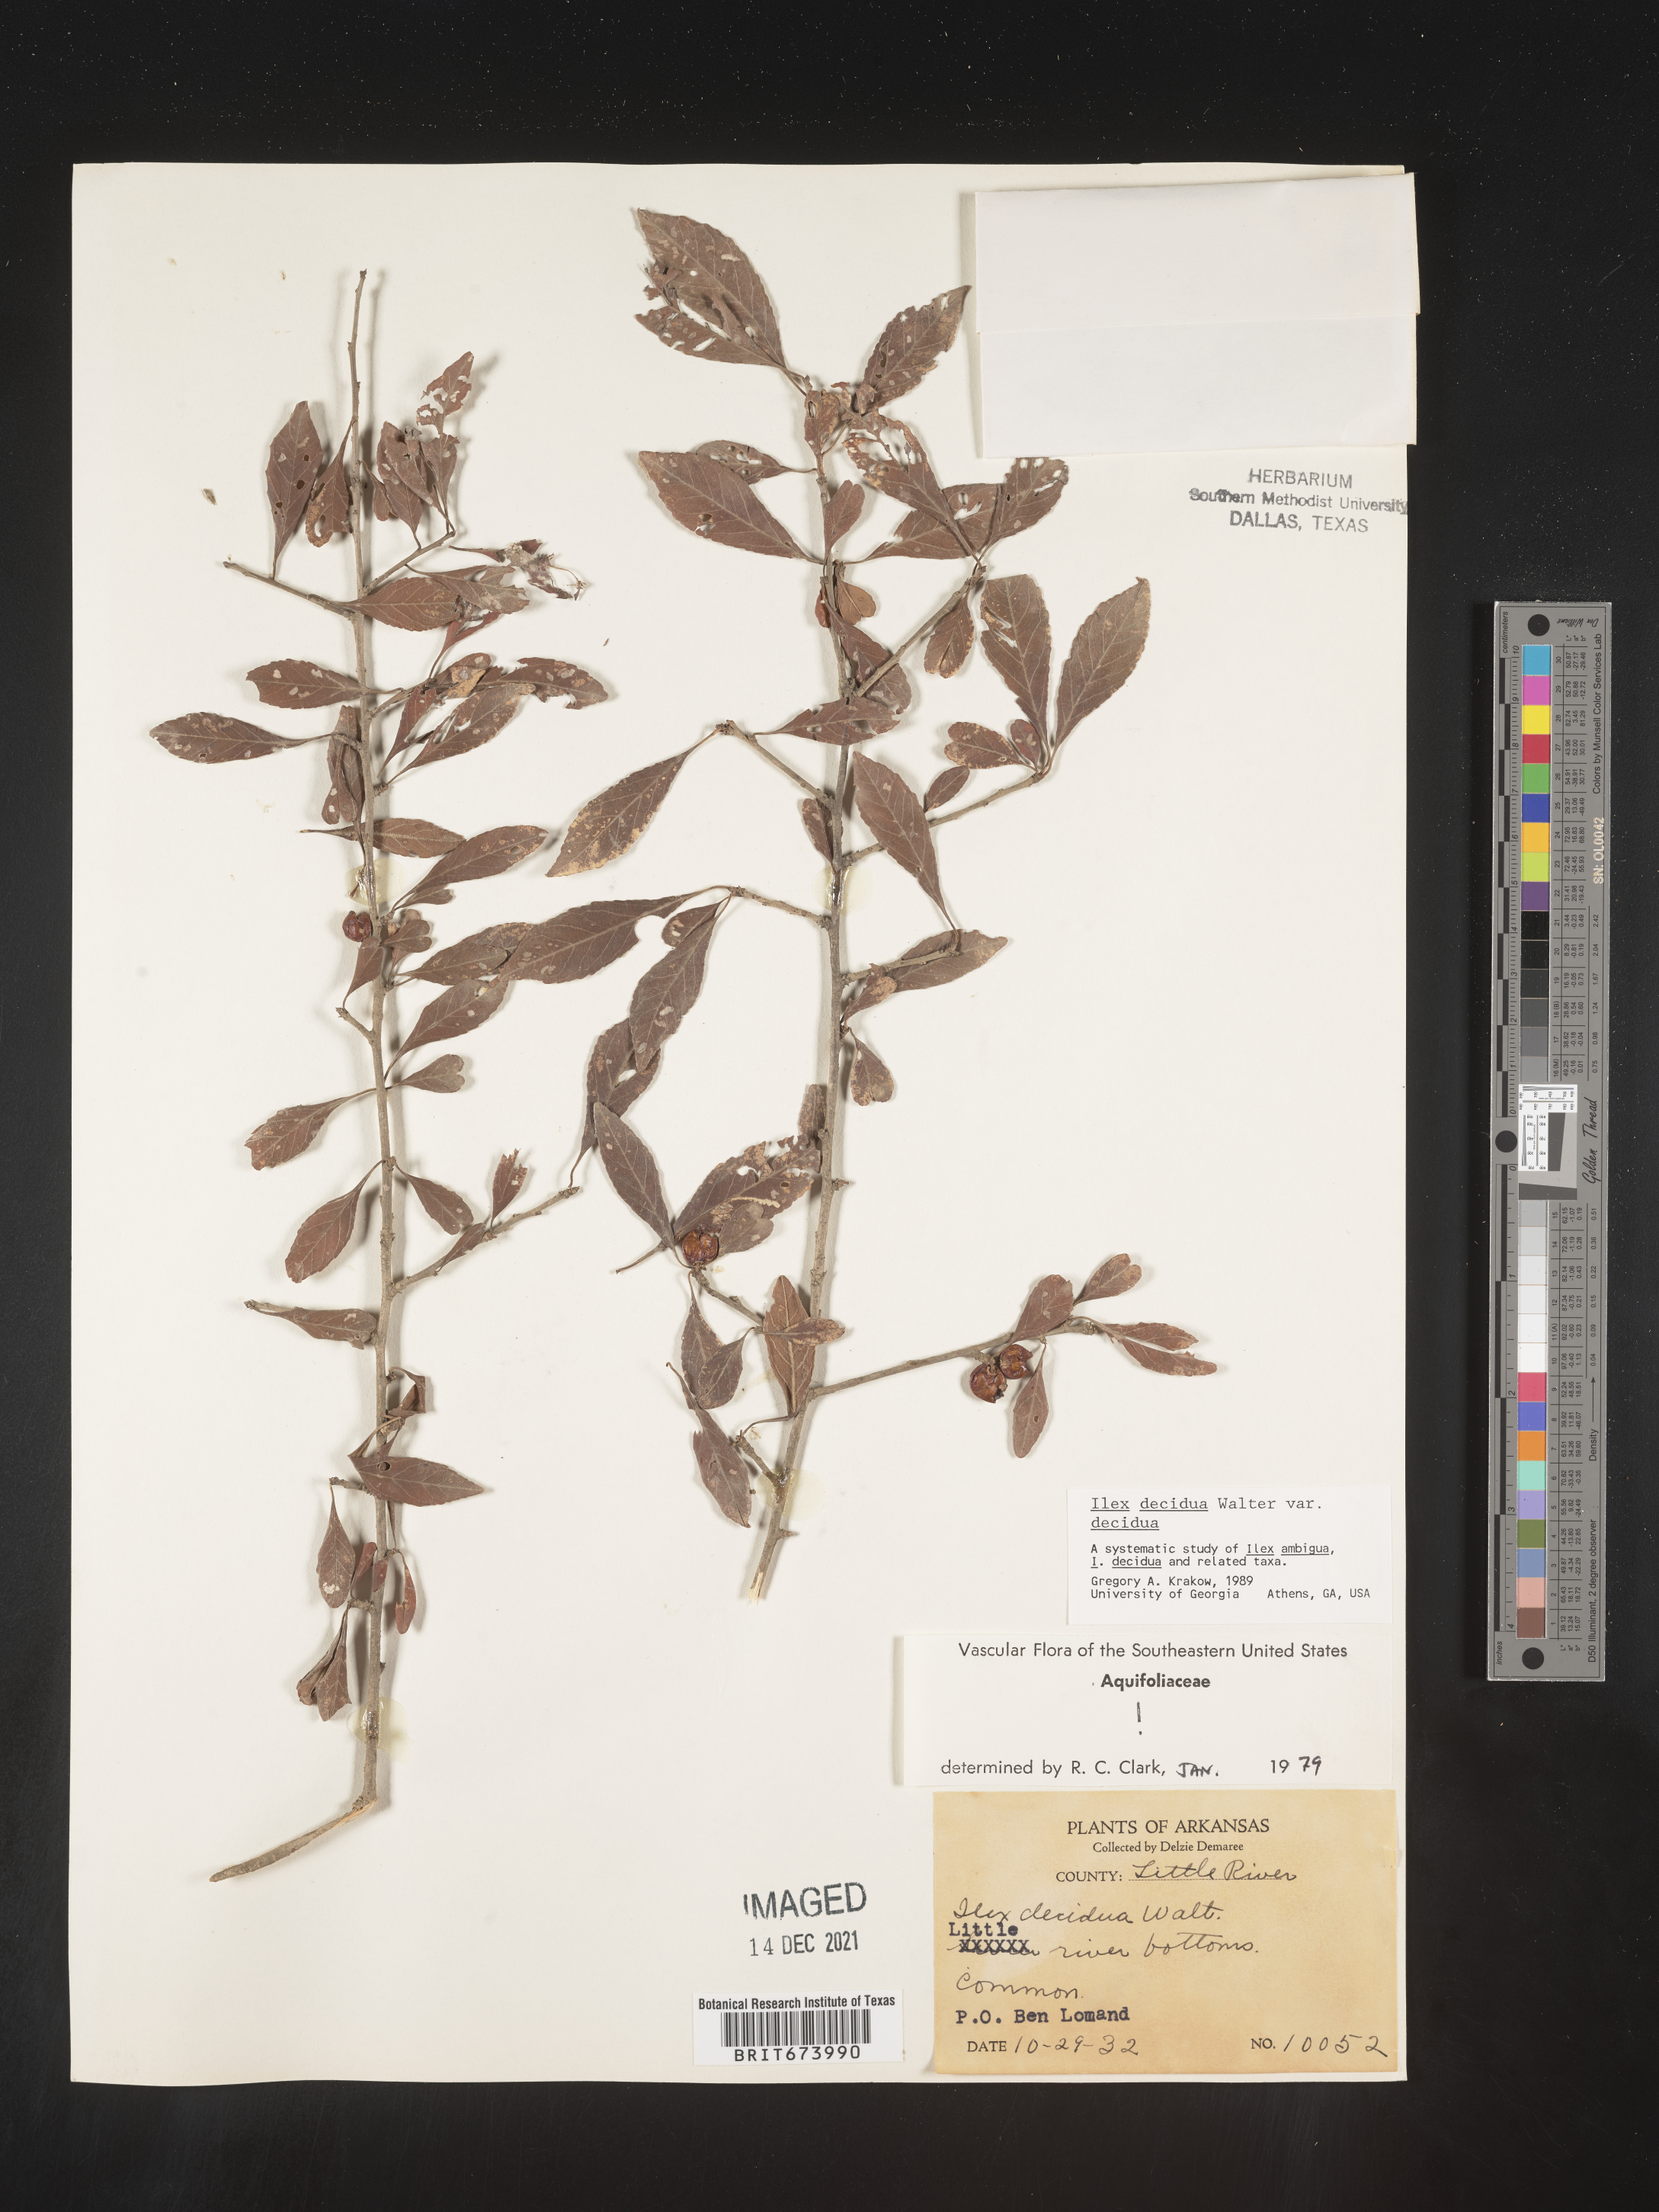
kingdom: Plantae
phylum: Tracheophyta
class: Magnoliopsida
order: Aquifoliales
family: Aquifoliaceae
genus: Ilex
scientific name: Ilex decidua
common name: Possum-haw
